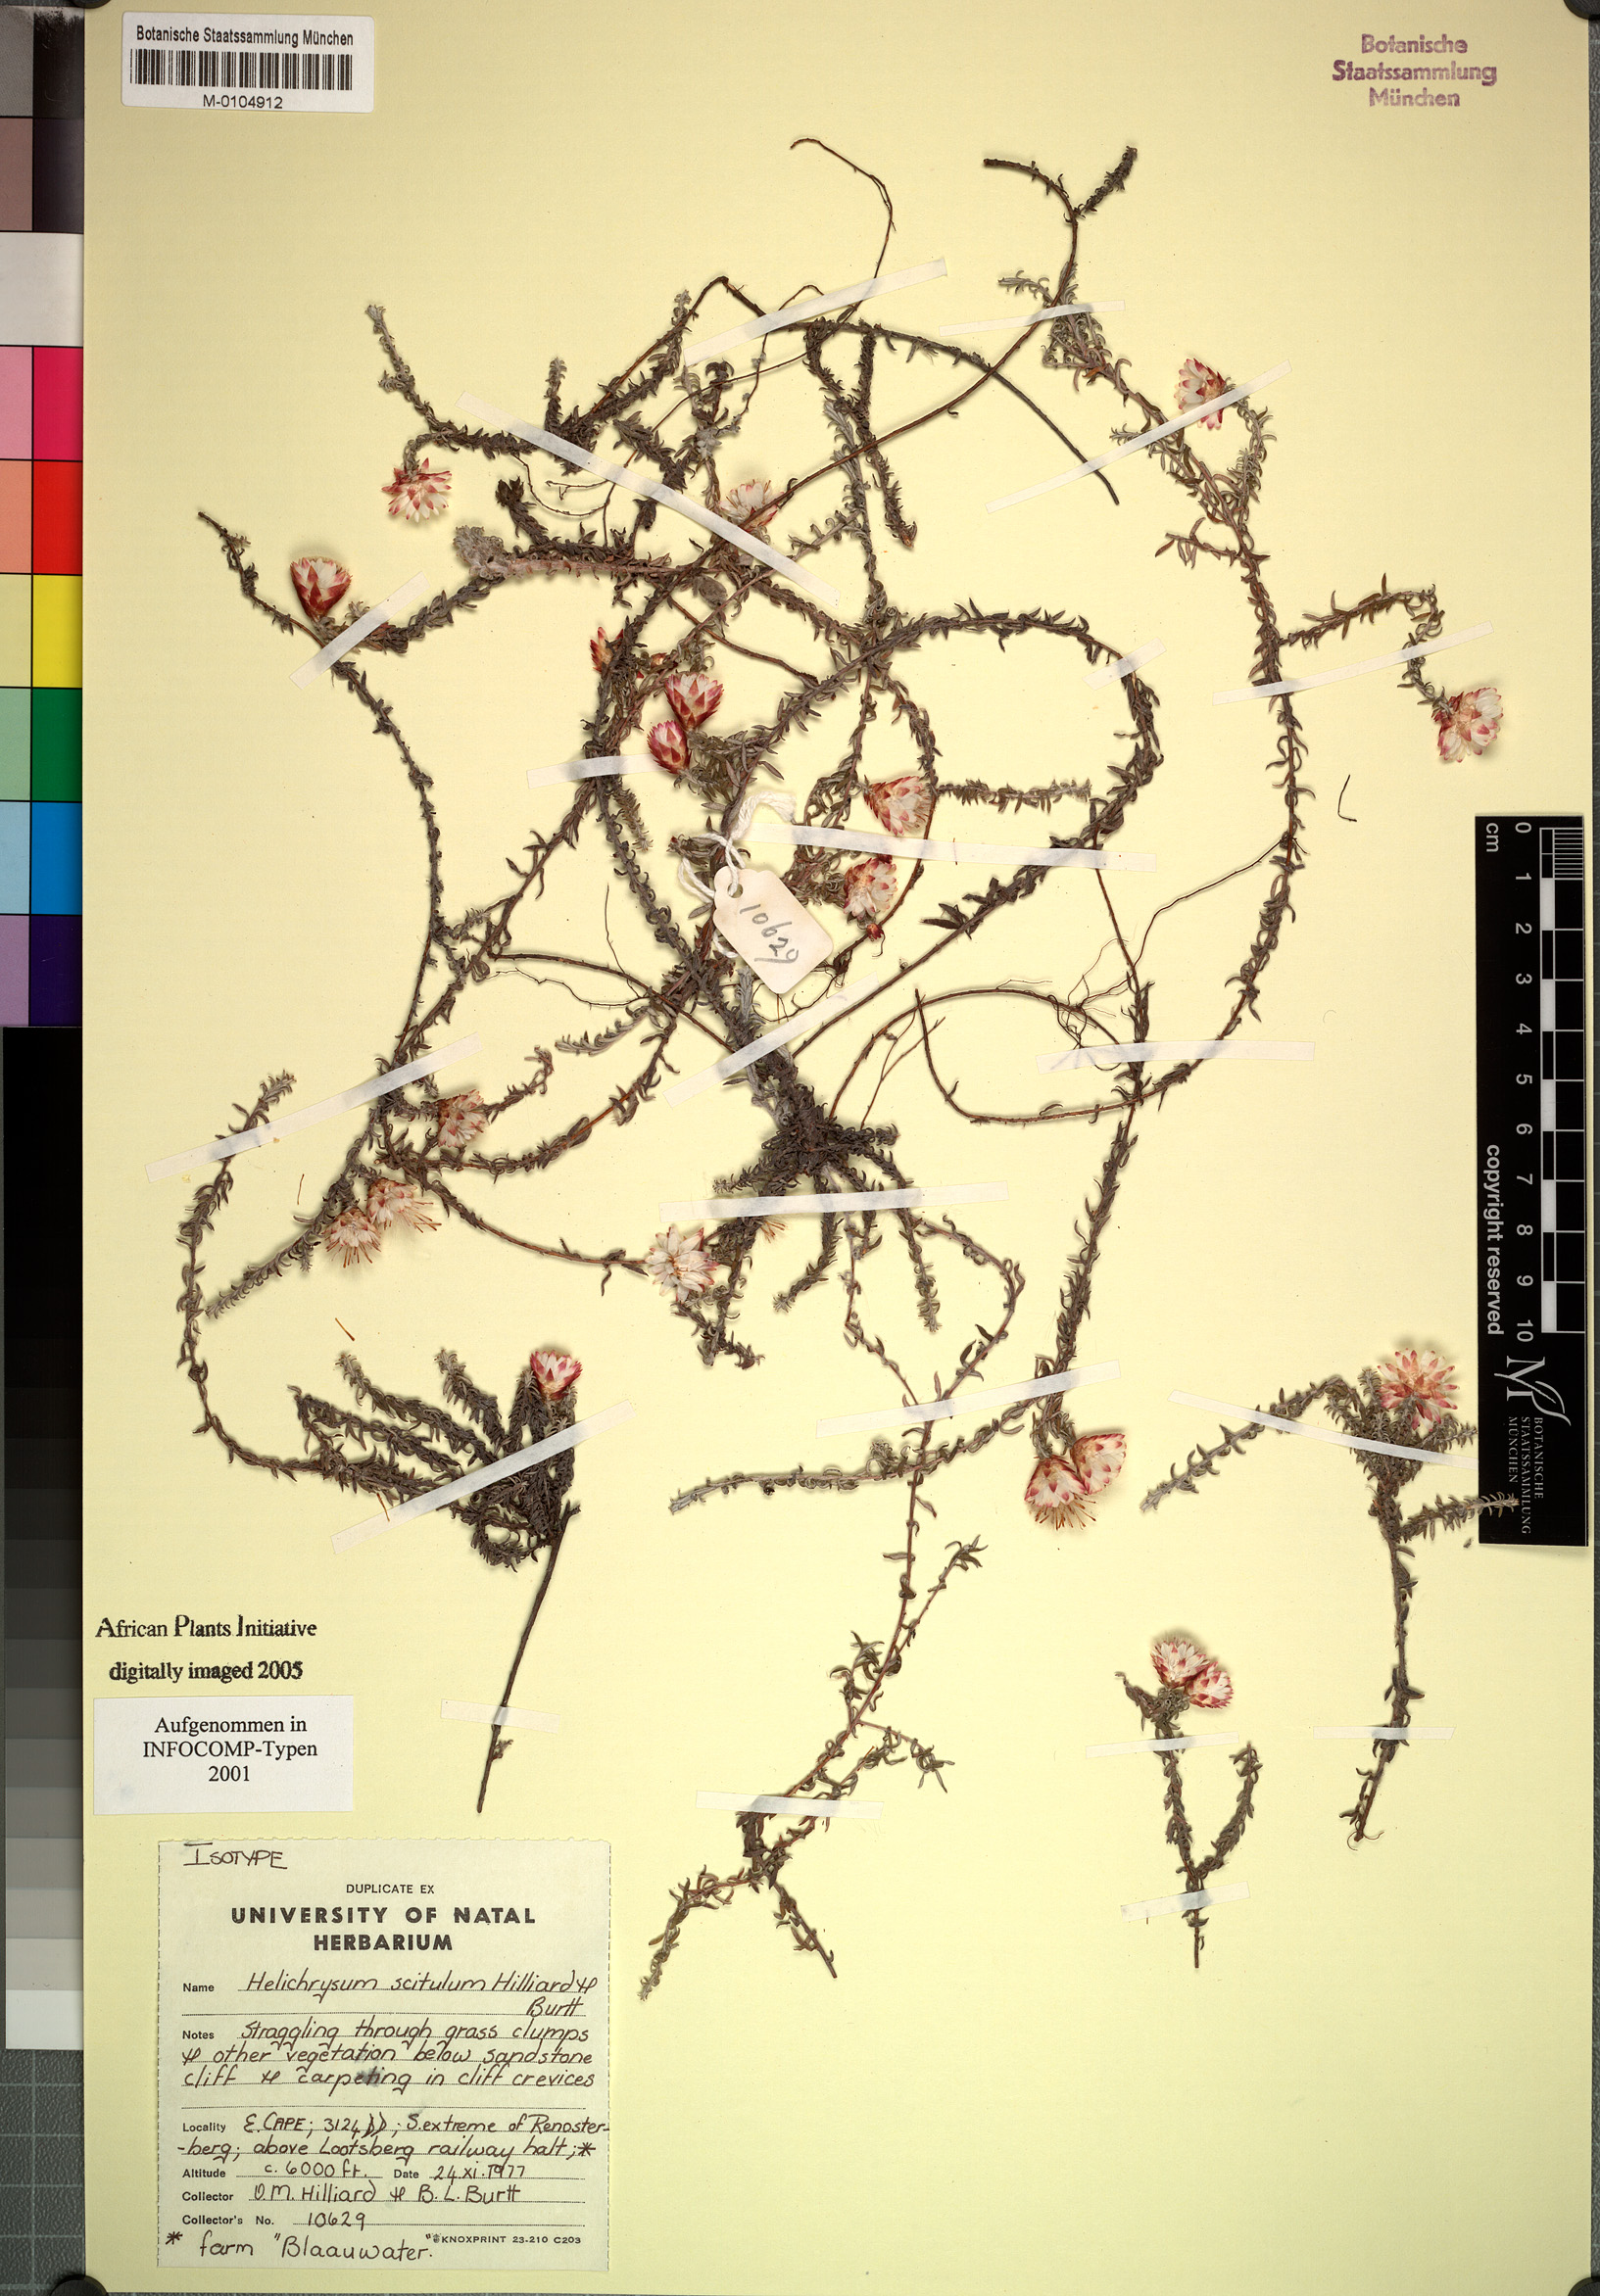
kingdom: Plantae
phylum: Tracheophyta
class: Magnoliopsida
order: Asterales
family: Asteraceae
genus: Helichrysum
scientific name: Helichrysum scitulum
